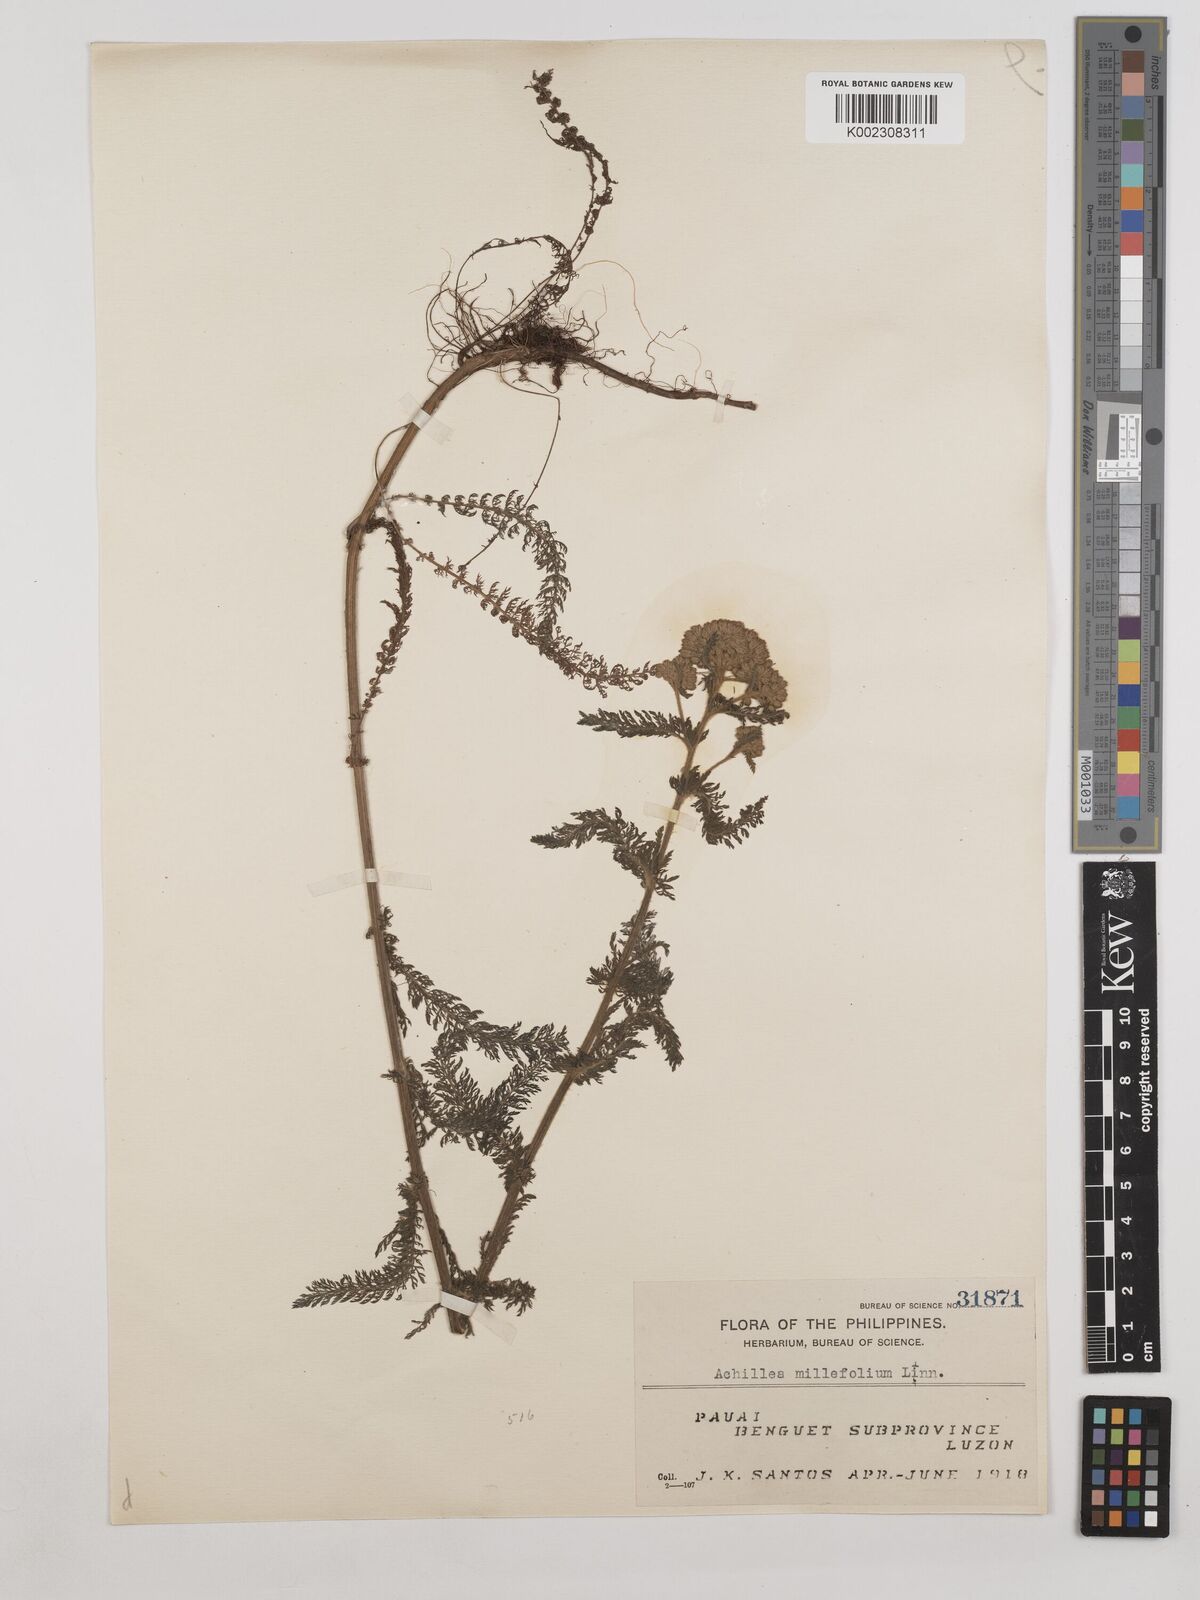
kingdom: Plantae
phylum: Tracheophyta
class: Magnoliopsida
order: Asterales
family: Asteraceae
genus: Achillea
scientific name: Achillea millefolium
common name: Yarrow
